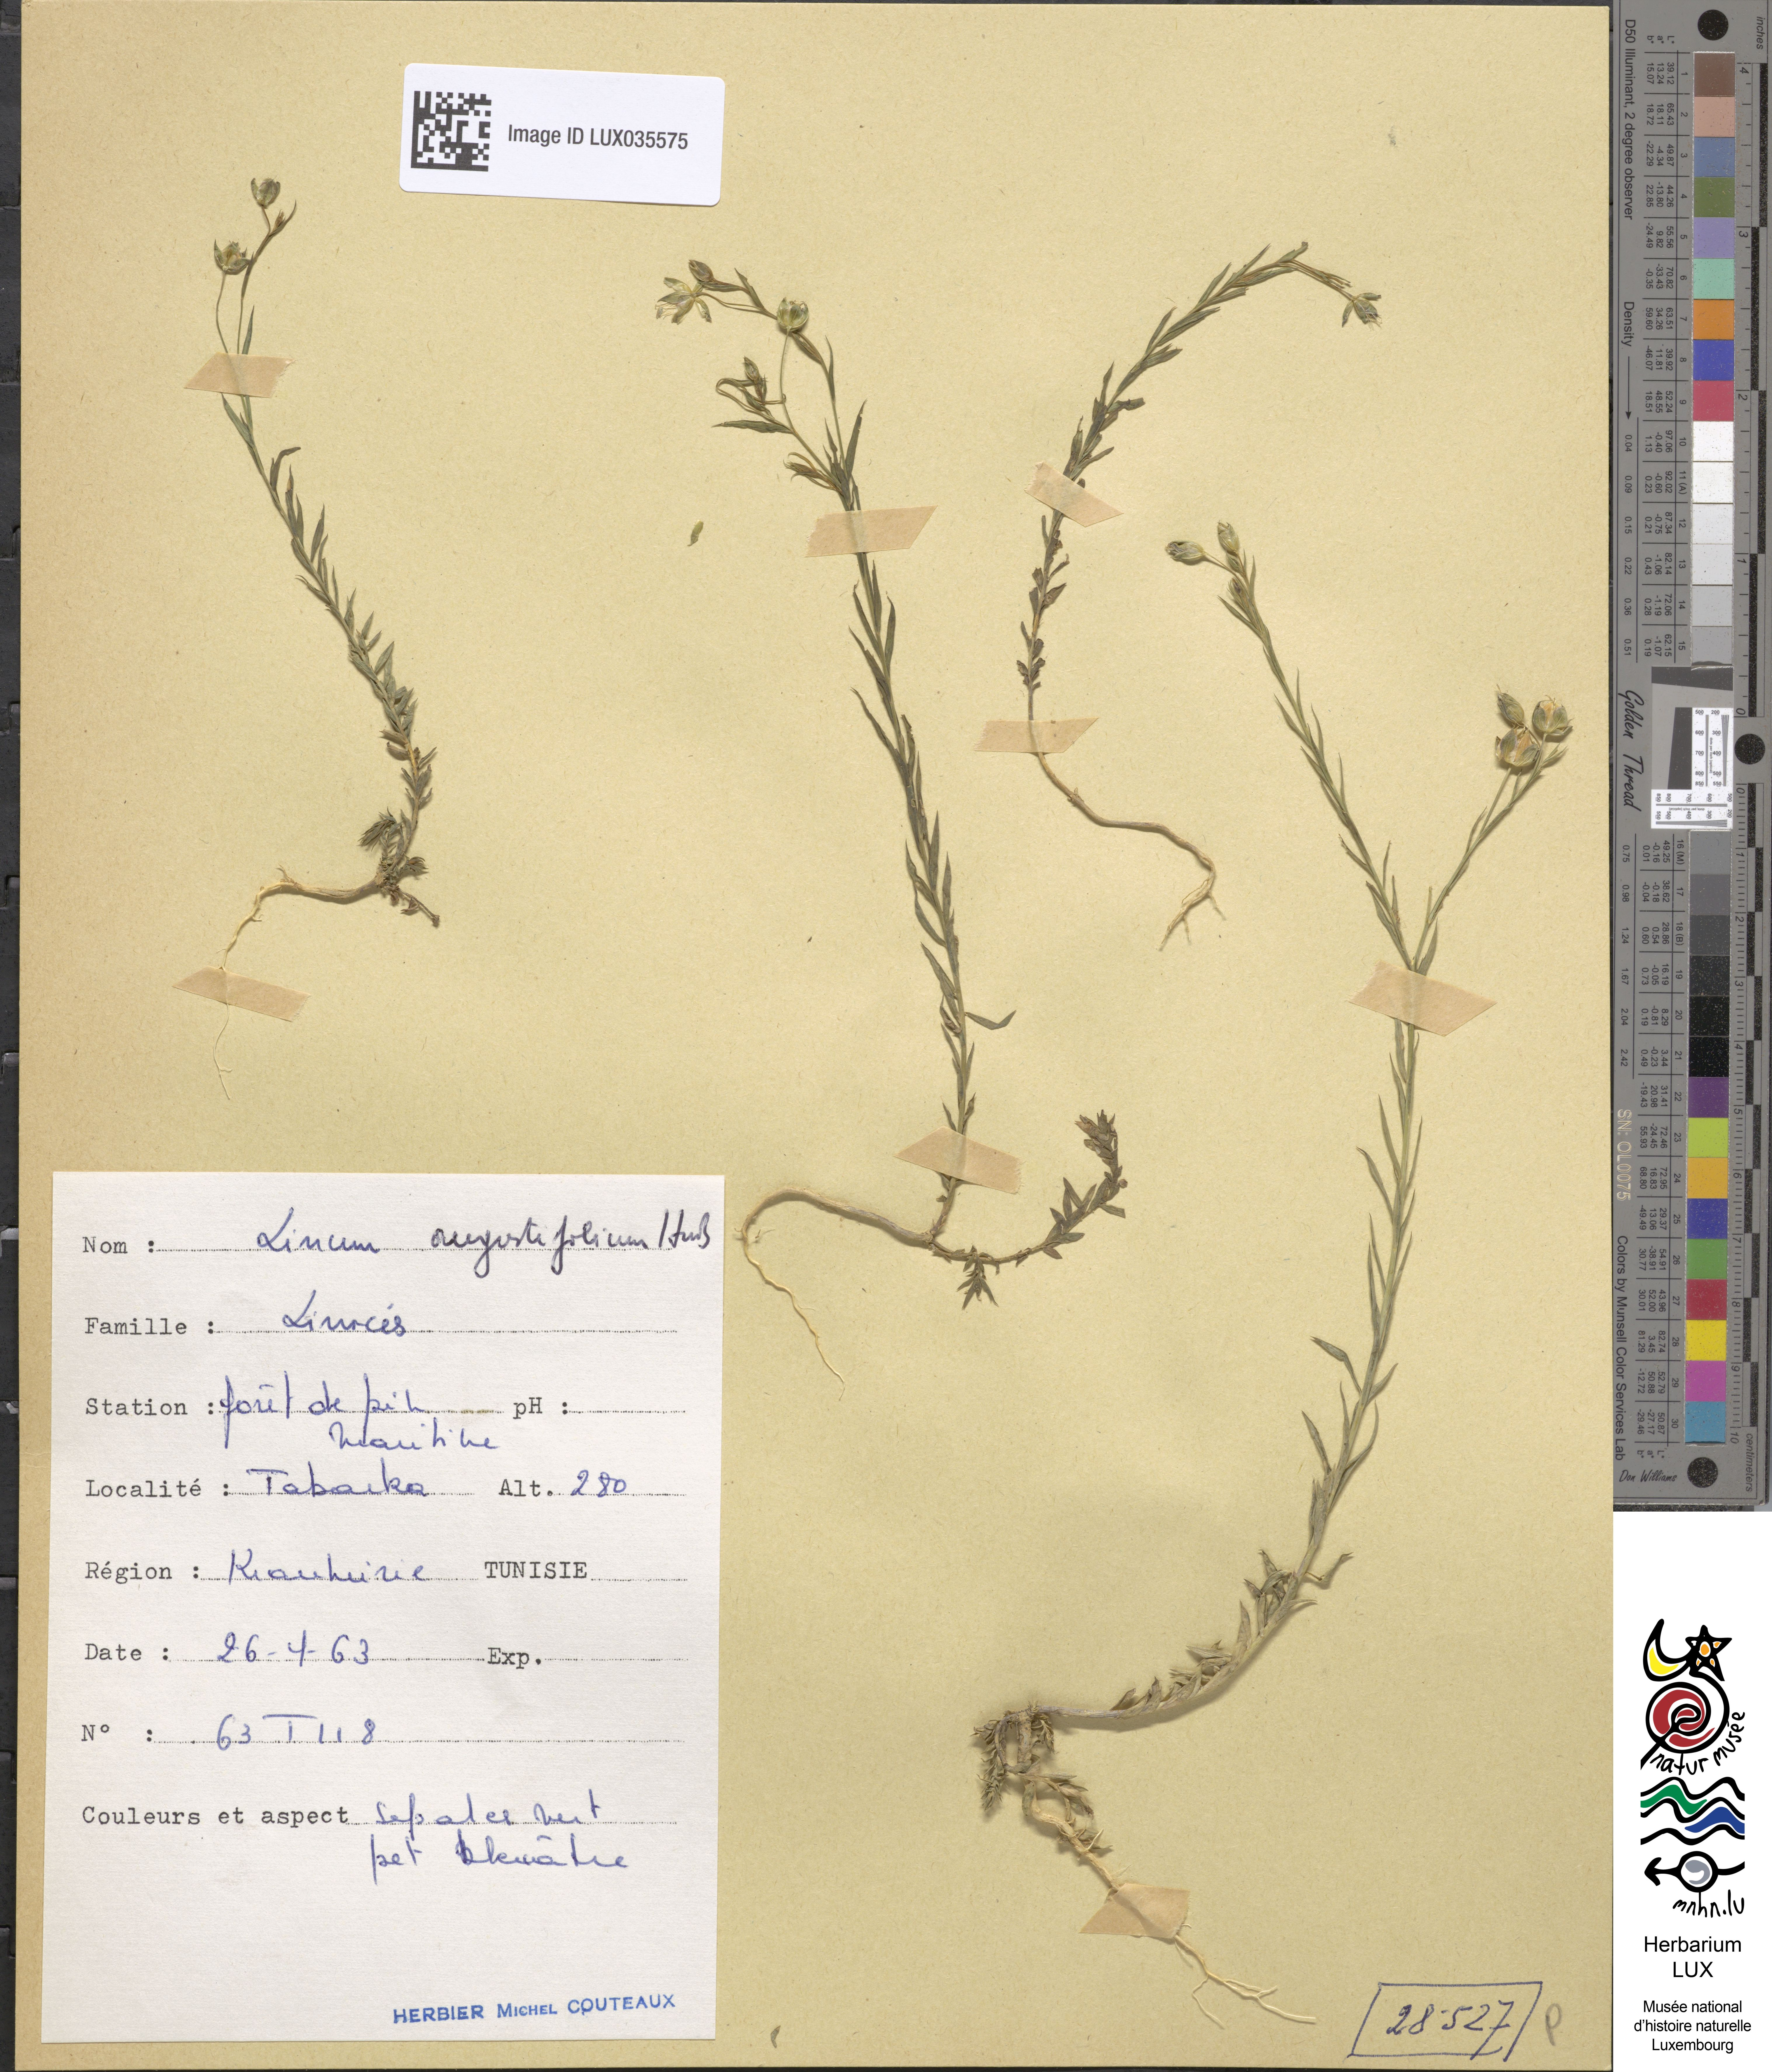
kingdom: Plantae
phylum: Tracheophyta
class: Magnoliopsida
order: Malpighiales
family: Linaceae
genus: Linum
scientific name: Linum bienne
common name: Pale flax
